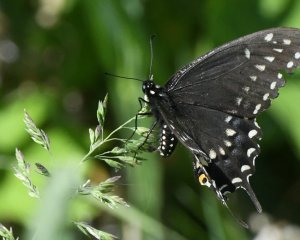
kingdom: Animalia
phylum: Arthropoda
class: Insecta
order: Lepidoptera
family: Papilionidae
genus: Papilio
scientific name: Papilio polyxenes
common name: Black Swallowtail
